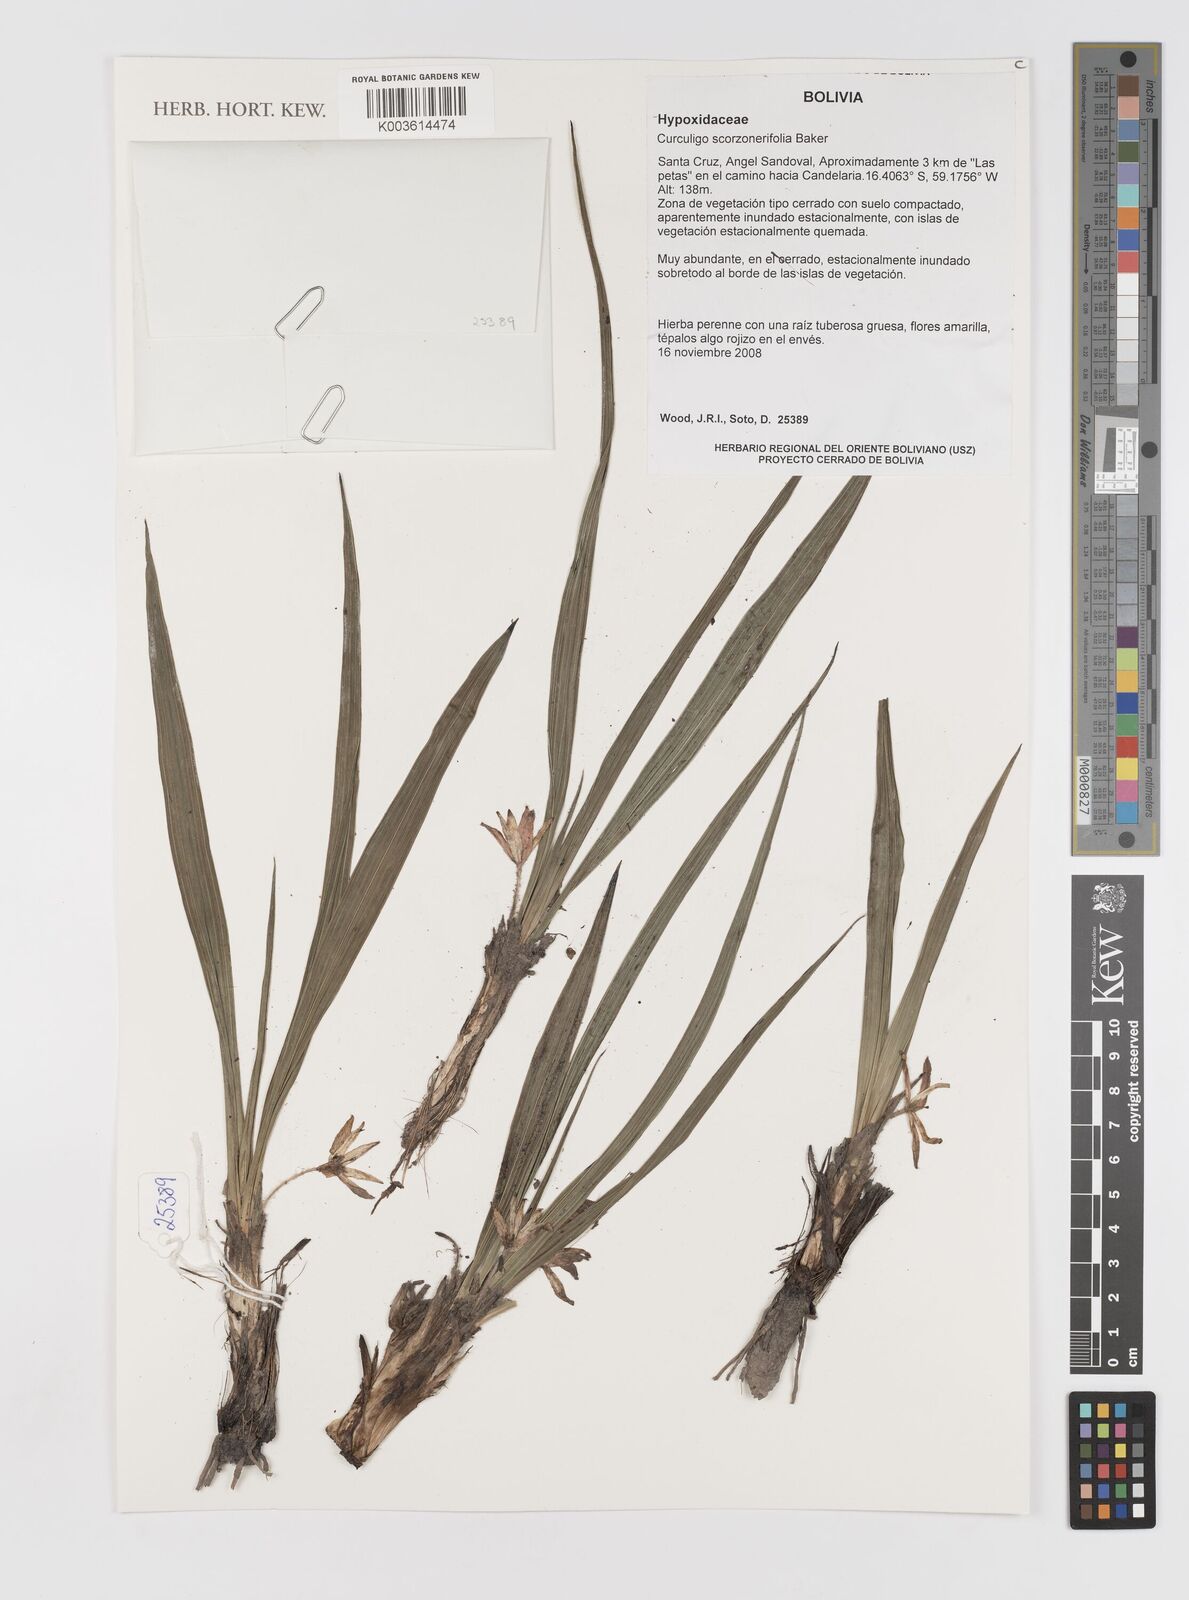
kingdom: Plantae
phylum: Tracheophyta
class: Liliopsida
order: Asparagales
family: Hypoxidaceae
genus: Curculigo
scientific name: Curculigo scorzonerifolia
